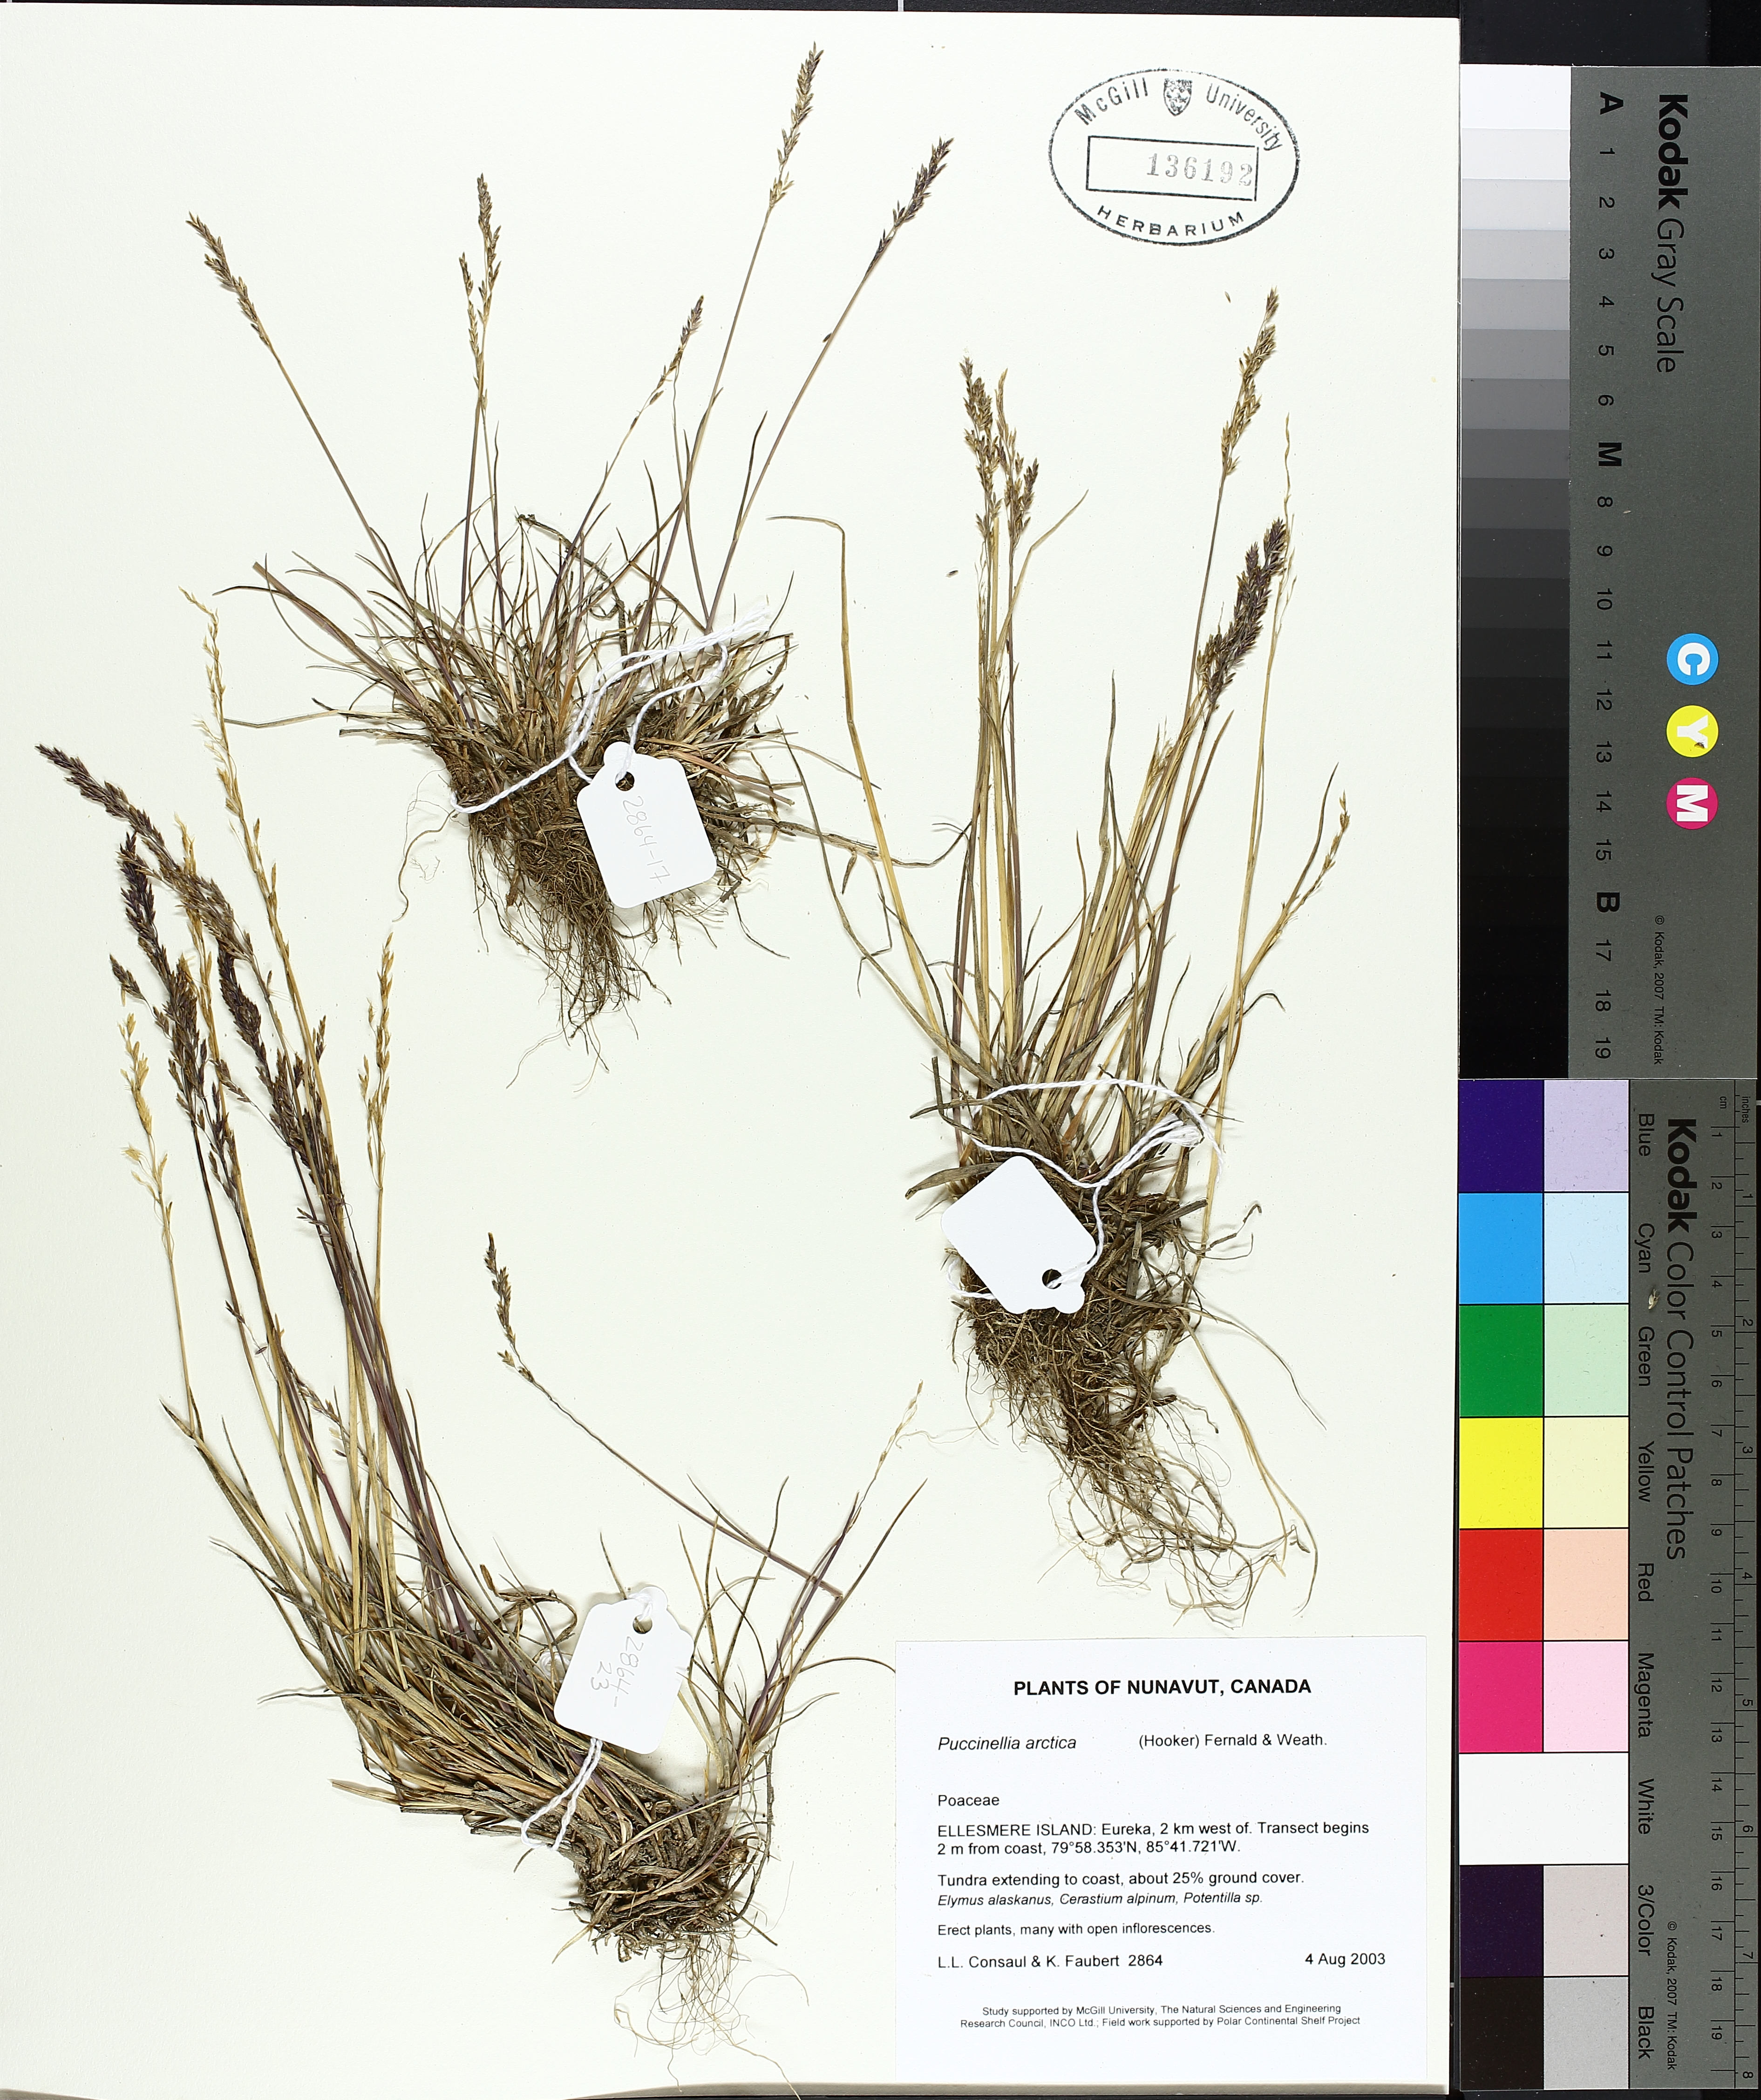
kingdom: Plantae
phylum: Tracheophyta
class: Liliopsida
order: Poales
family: Poaceae
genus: Puccinellia
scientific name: Puccinellia arctica
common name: Arctic alkali grass
